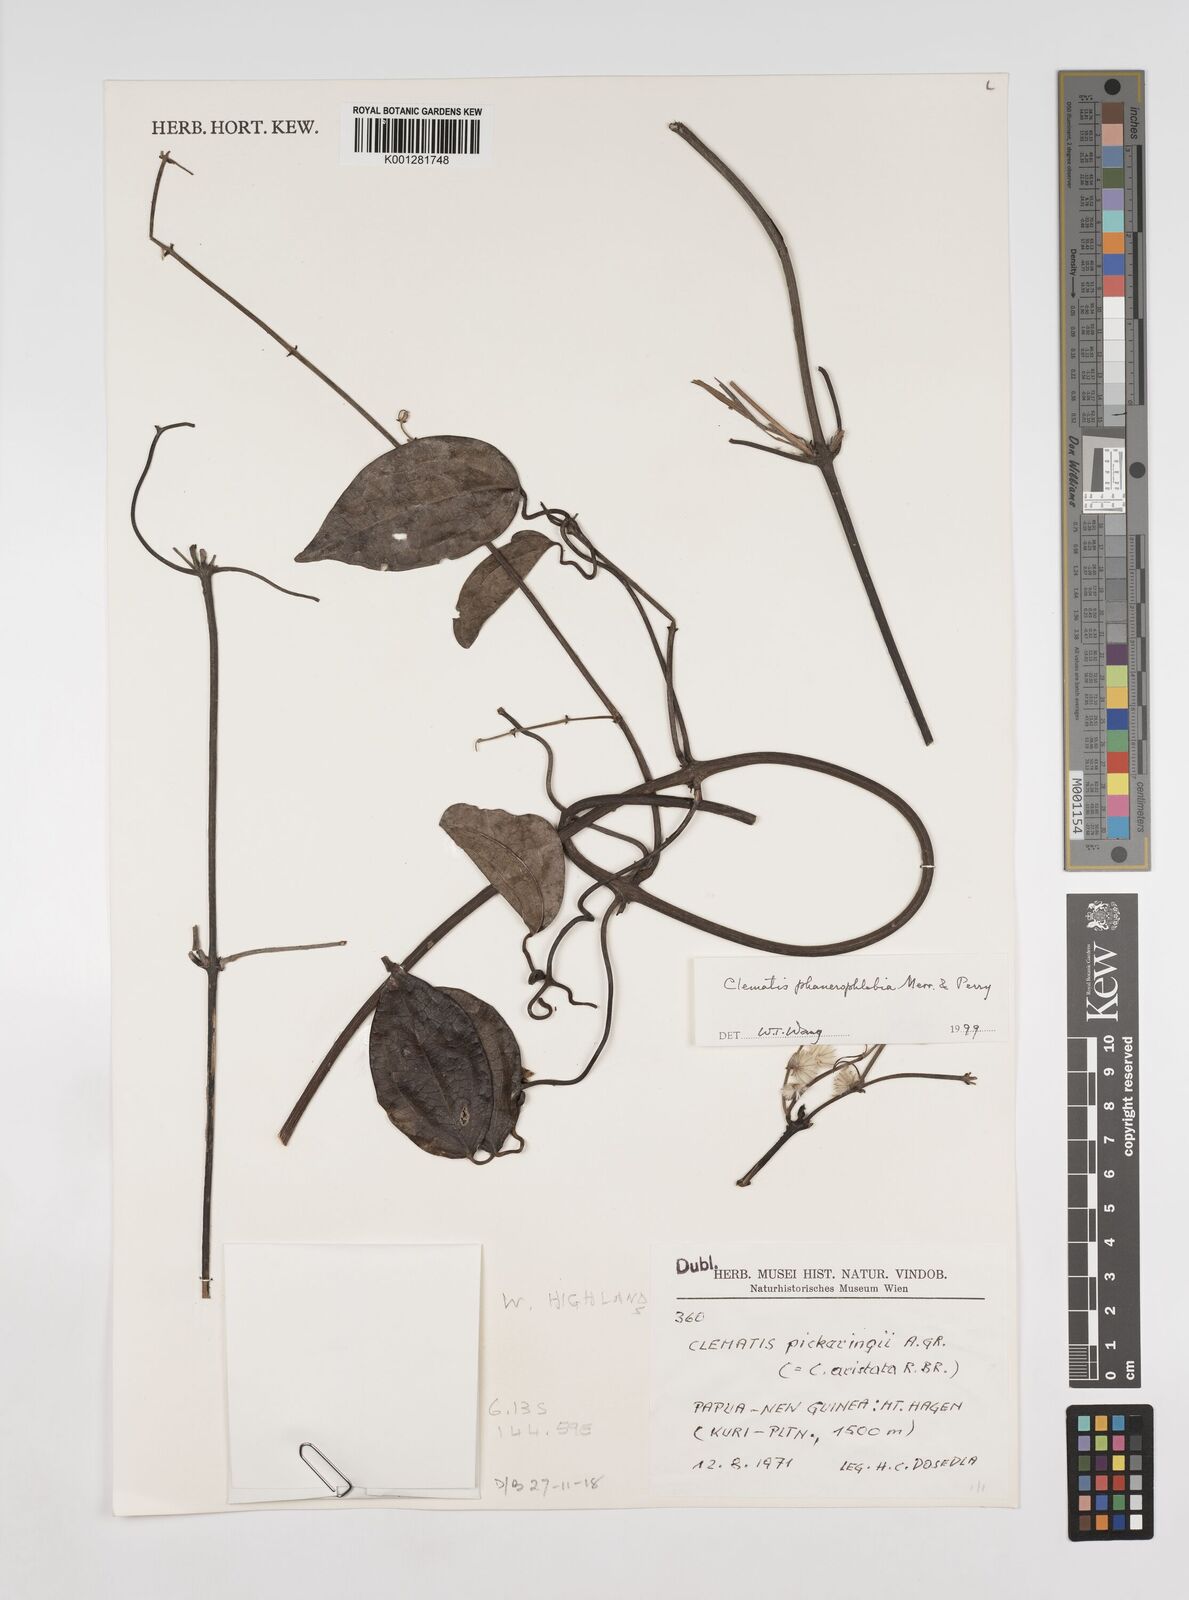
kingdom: Plantae
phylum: Tracheophyta
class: Magnoliopsida
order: Ranunculales
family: Ranunculaceae
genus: Clematis
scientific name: Clematis phanerophlebia
